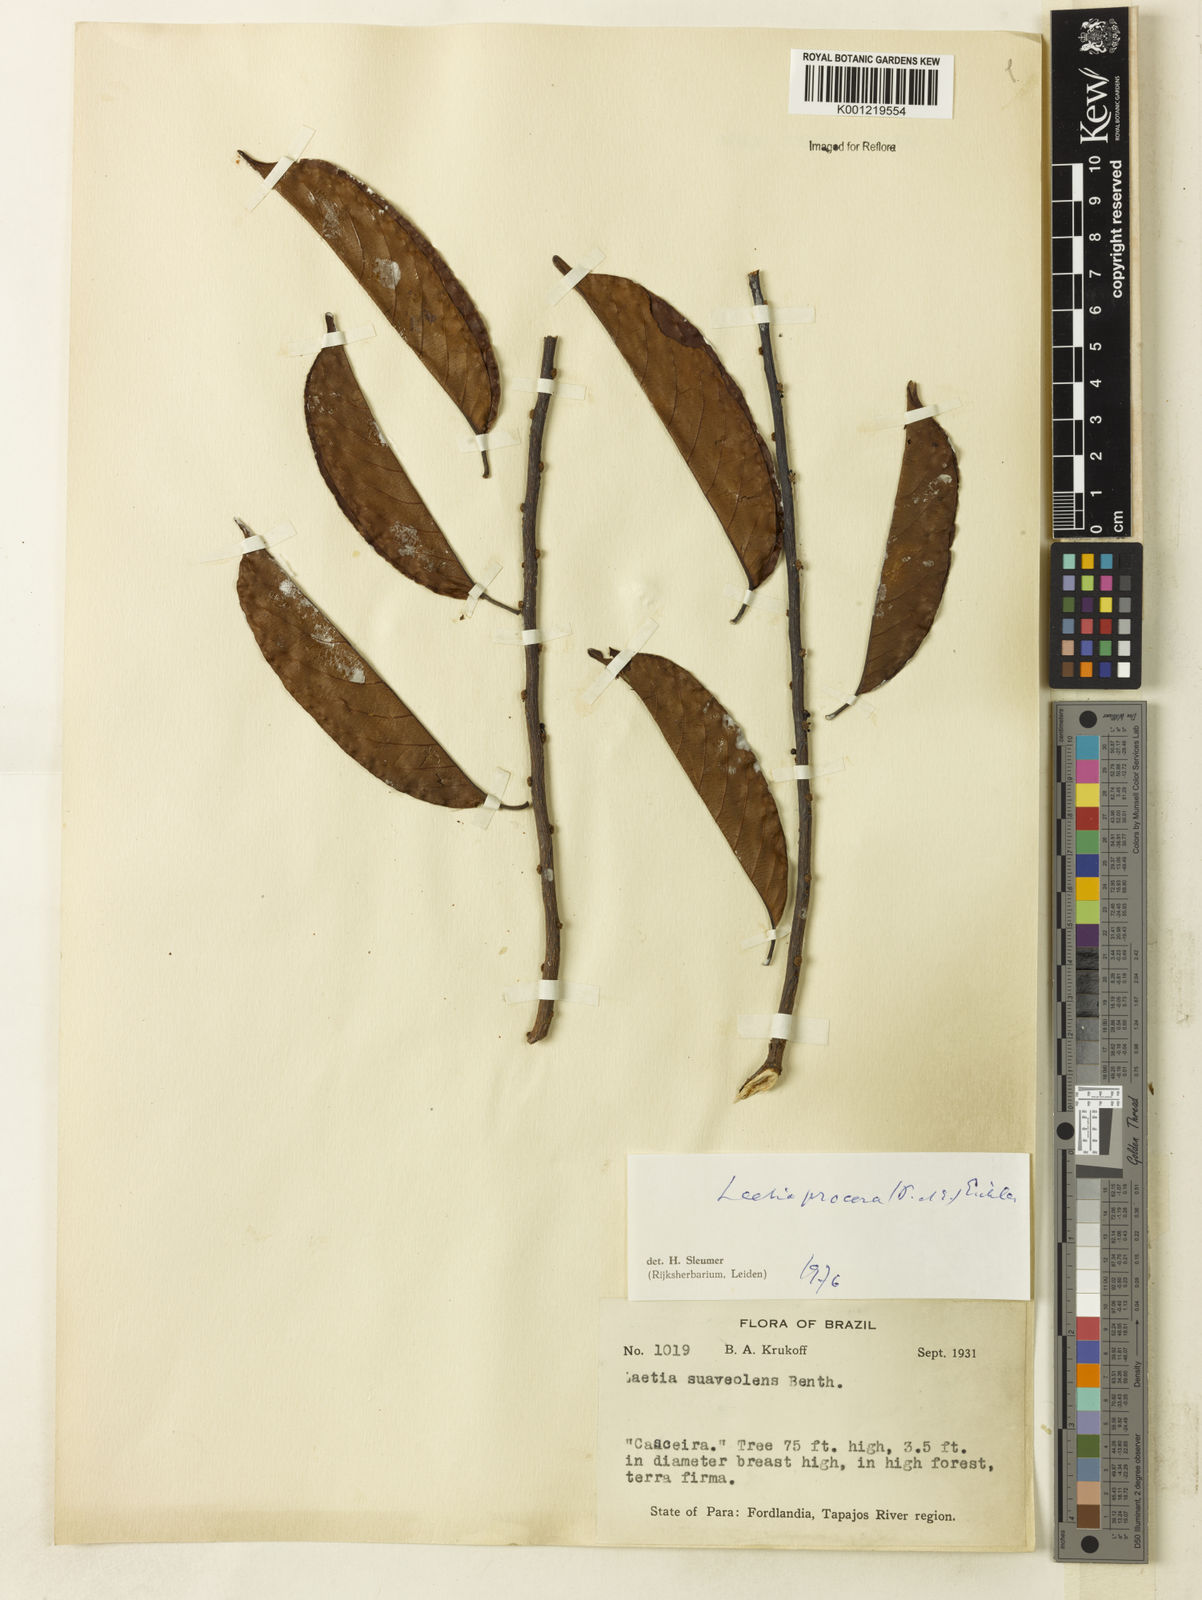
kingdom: Plantae
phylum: Tracheophyta
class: Magnoliopsida
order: Malpighiales
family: Salicaceae
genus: Casearia
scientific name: Casearia bicolor
